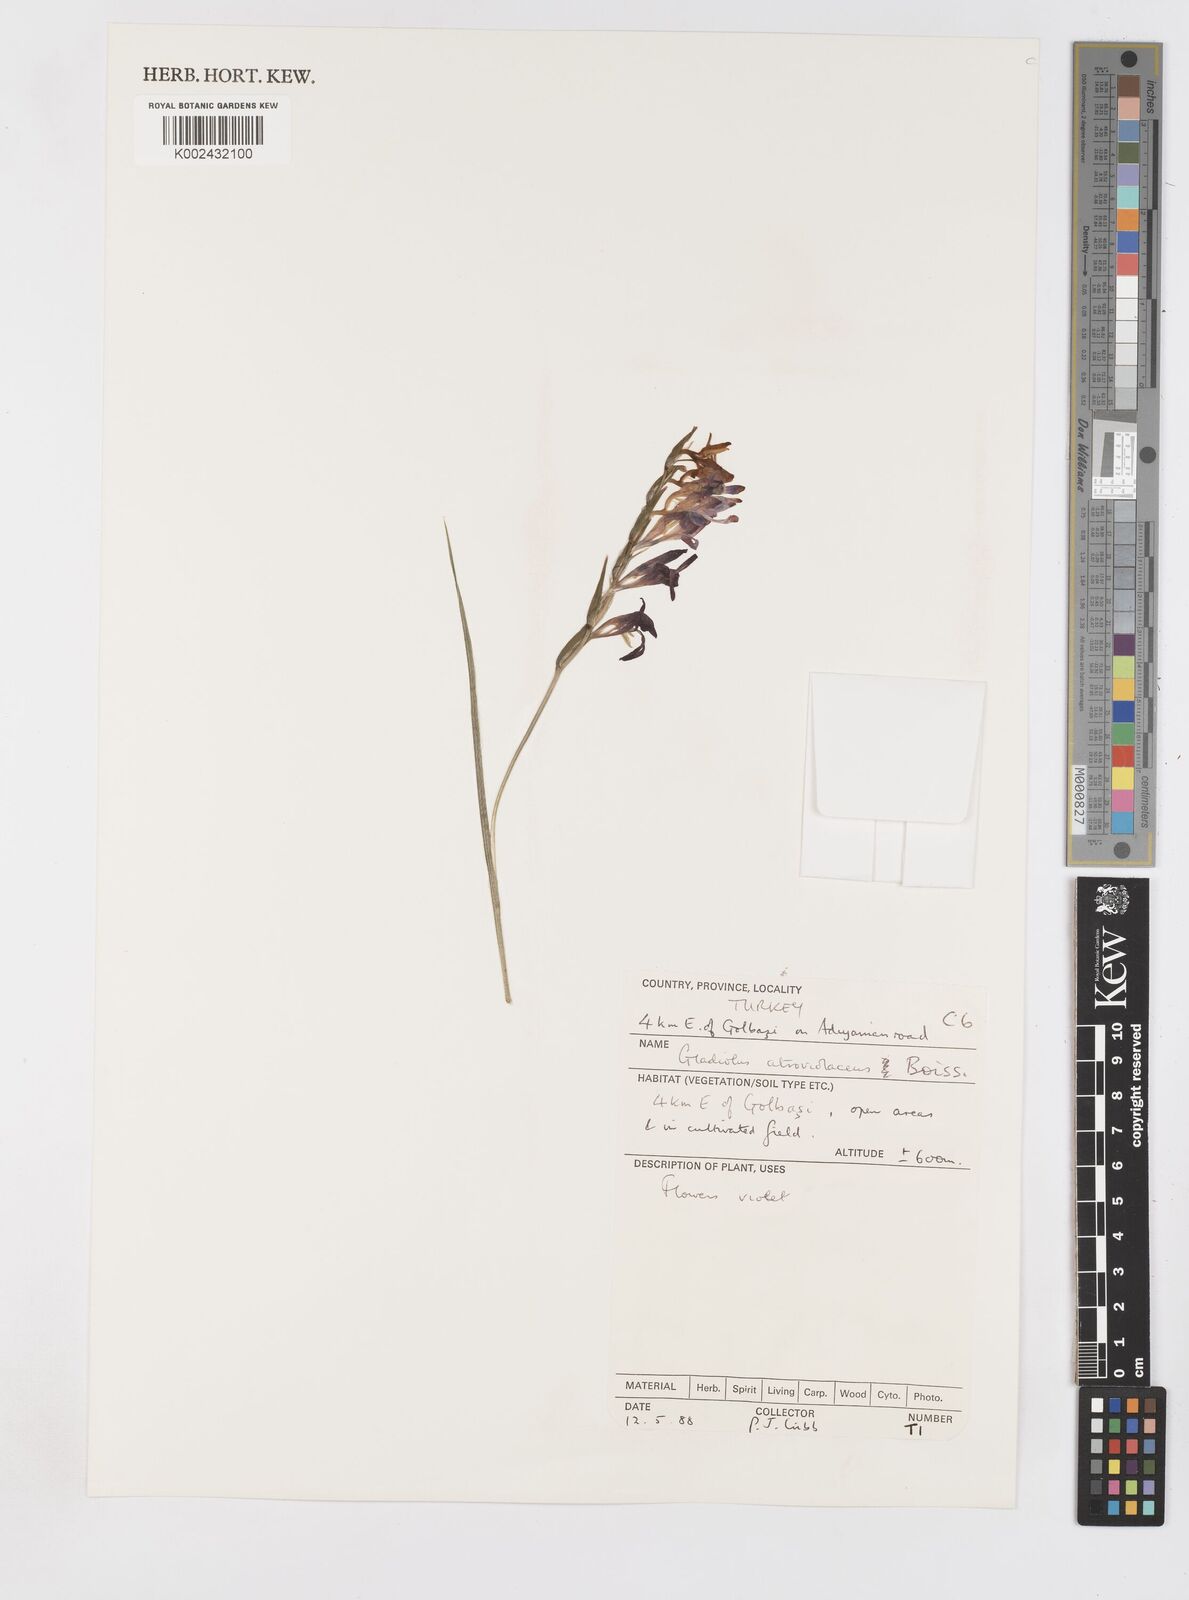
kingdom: Plantae
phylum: Tracheophyta
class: Liliopsida
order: Asparagales
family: Iridaceae
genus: Gladiolus
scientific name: Gladiolus atroviolaceus
